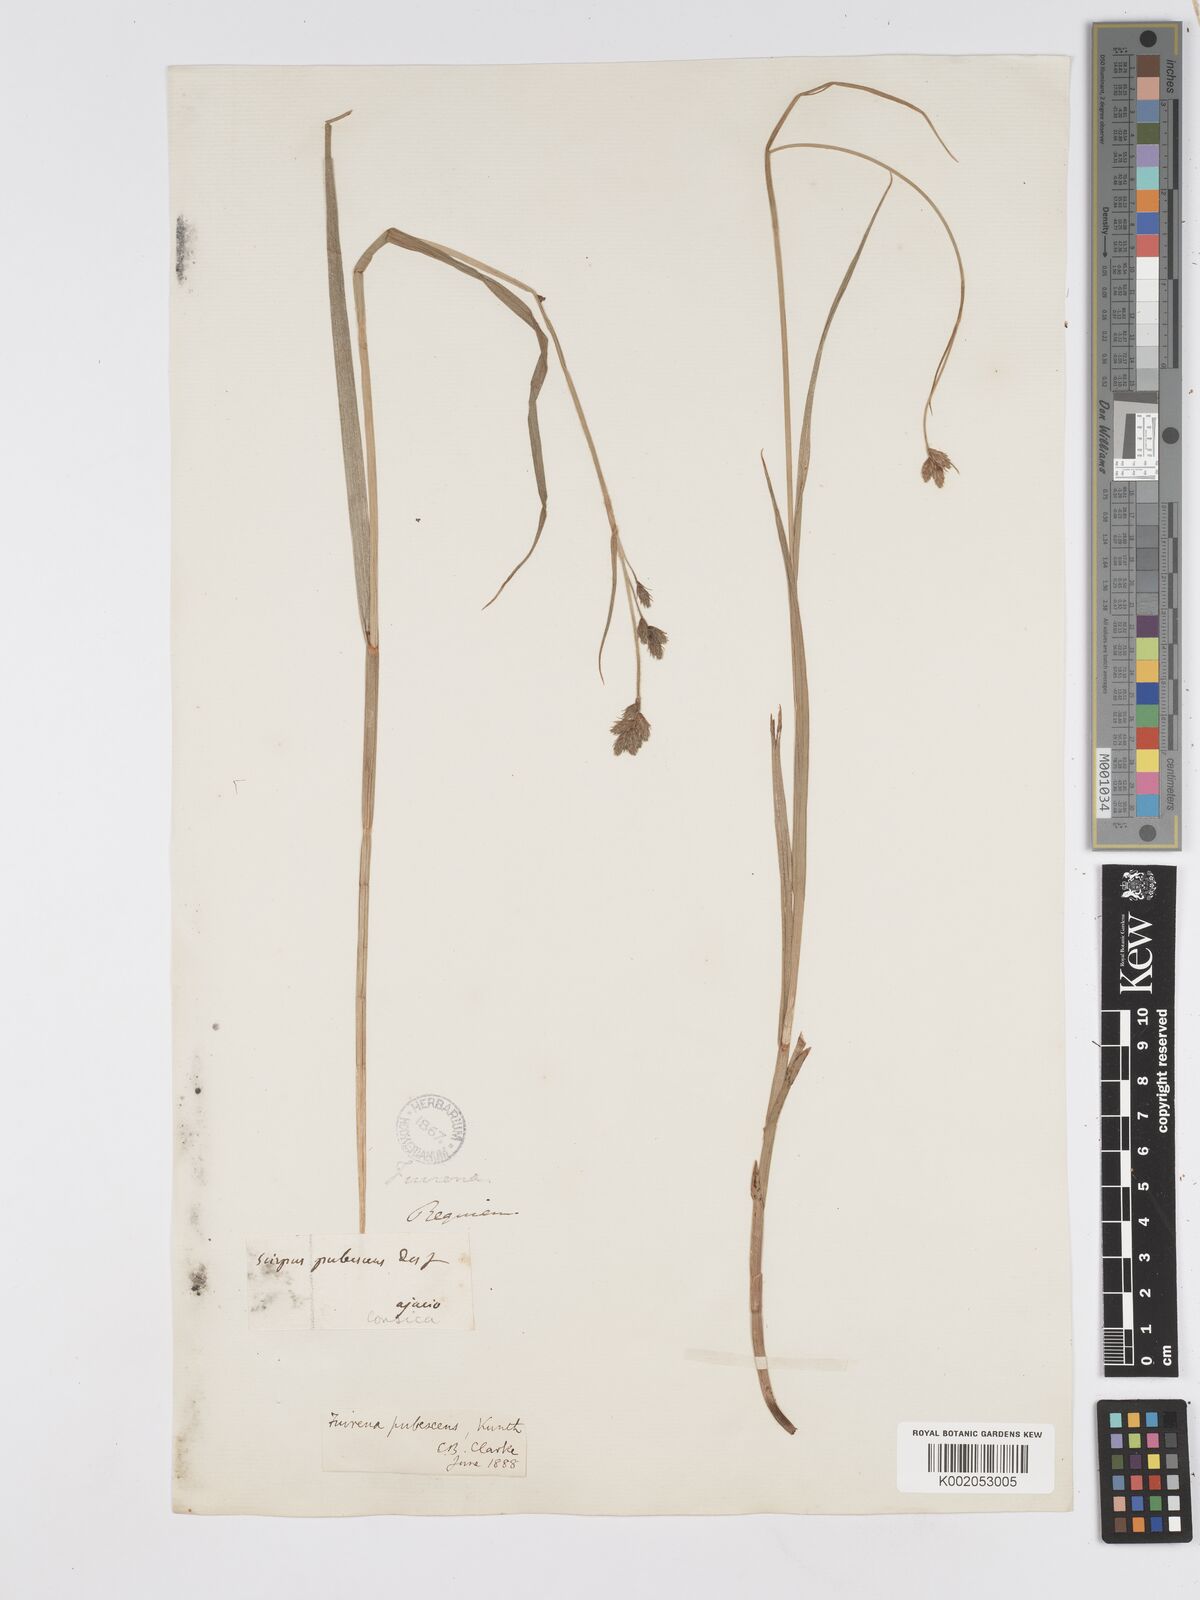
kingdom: Plantae
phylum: Tracheophyta
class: Liliopsida
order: Poales
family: Cyperaceae
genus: Fuirena
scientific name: Fuirena pubescens
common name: Hairy sedge
